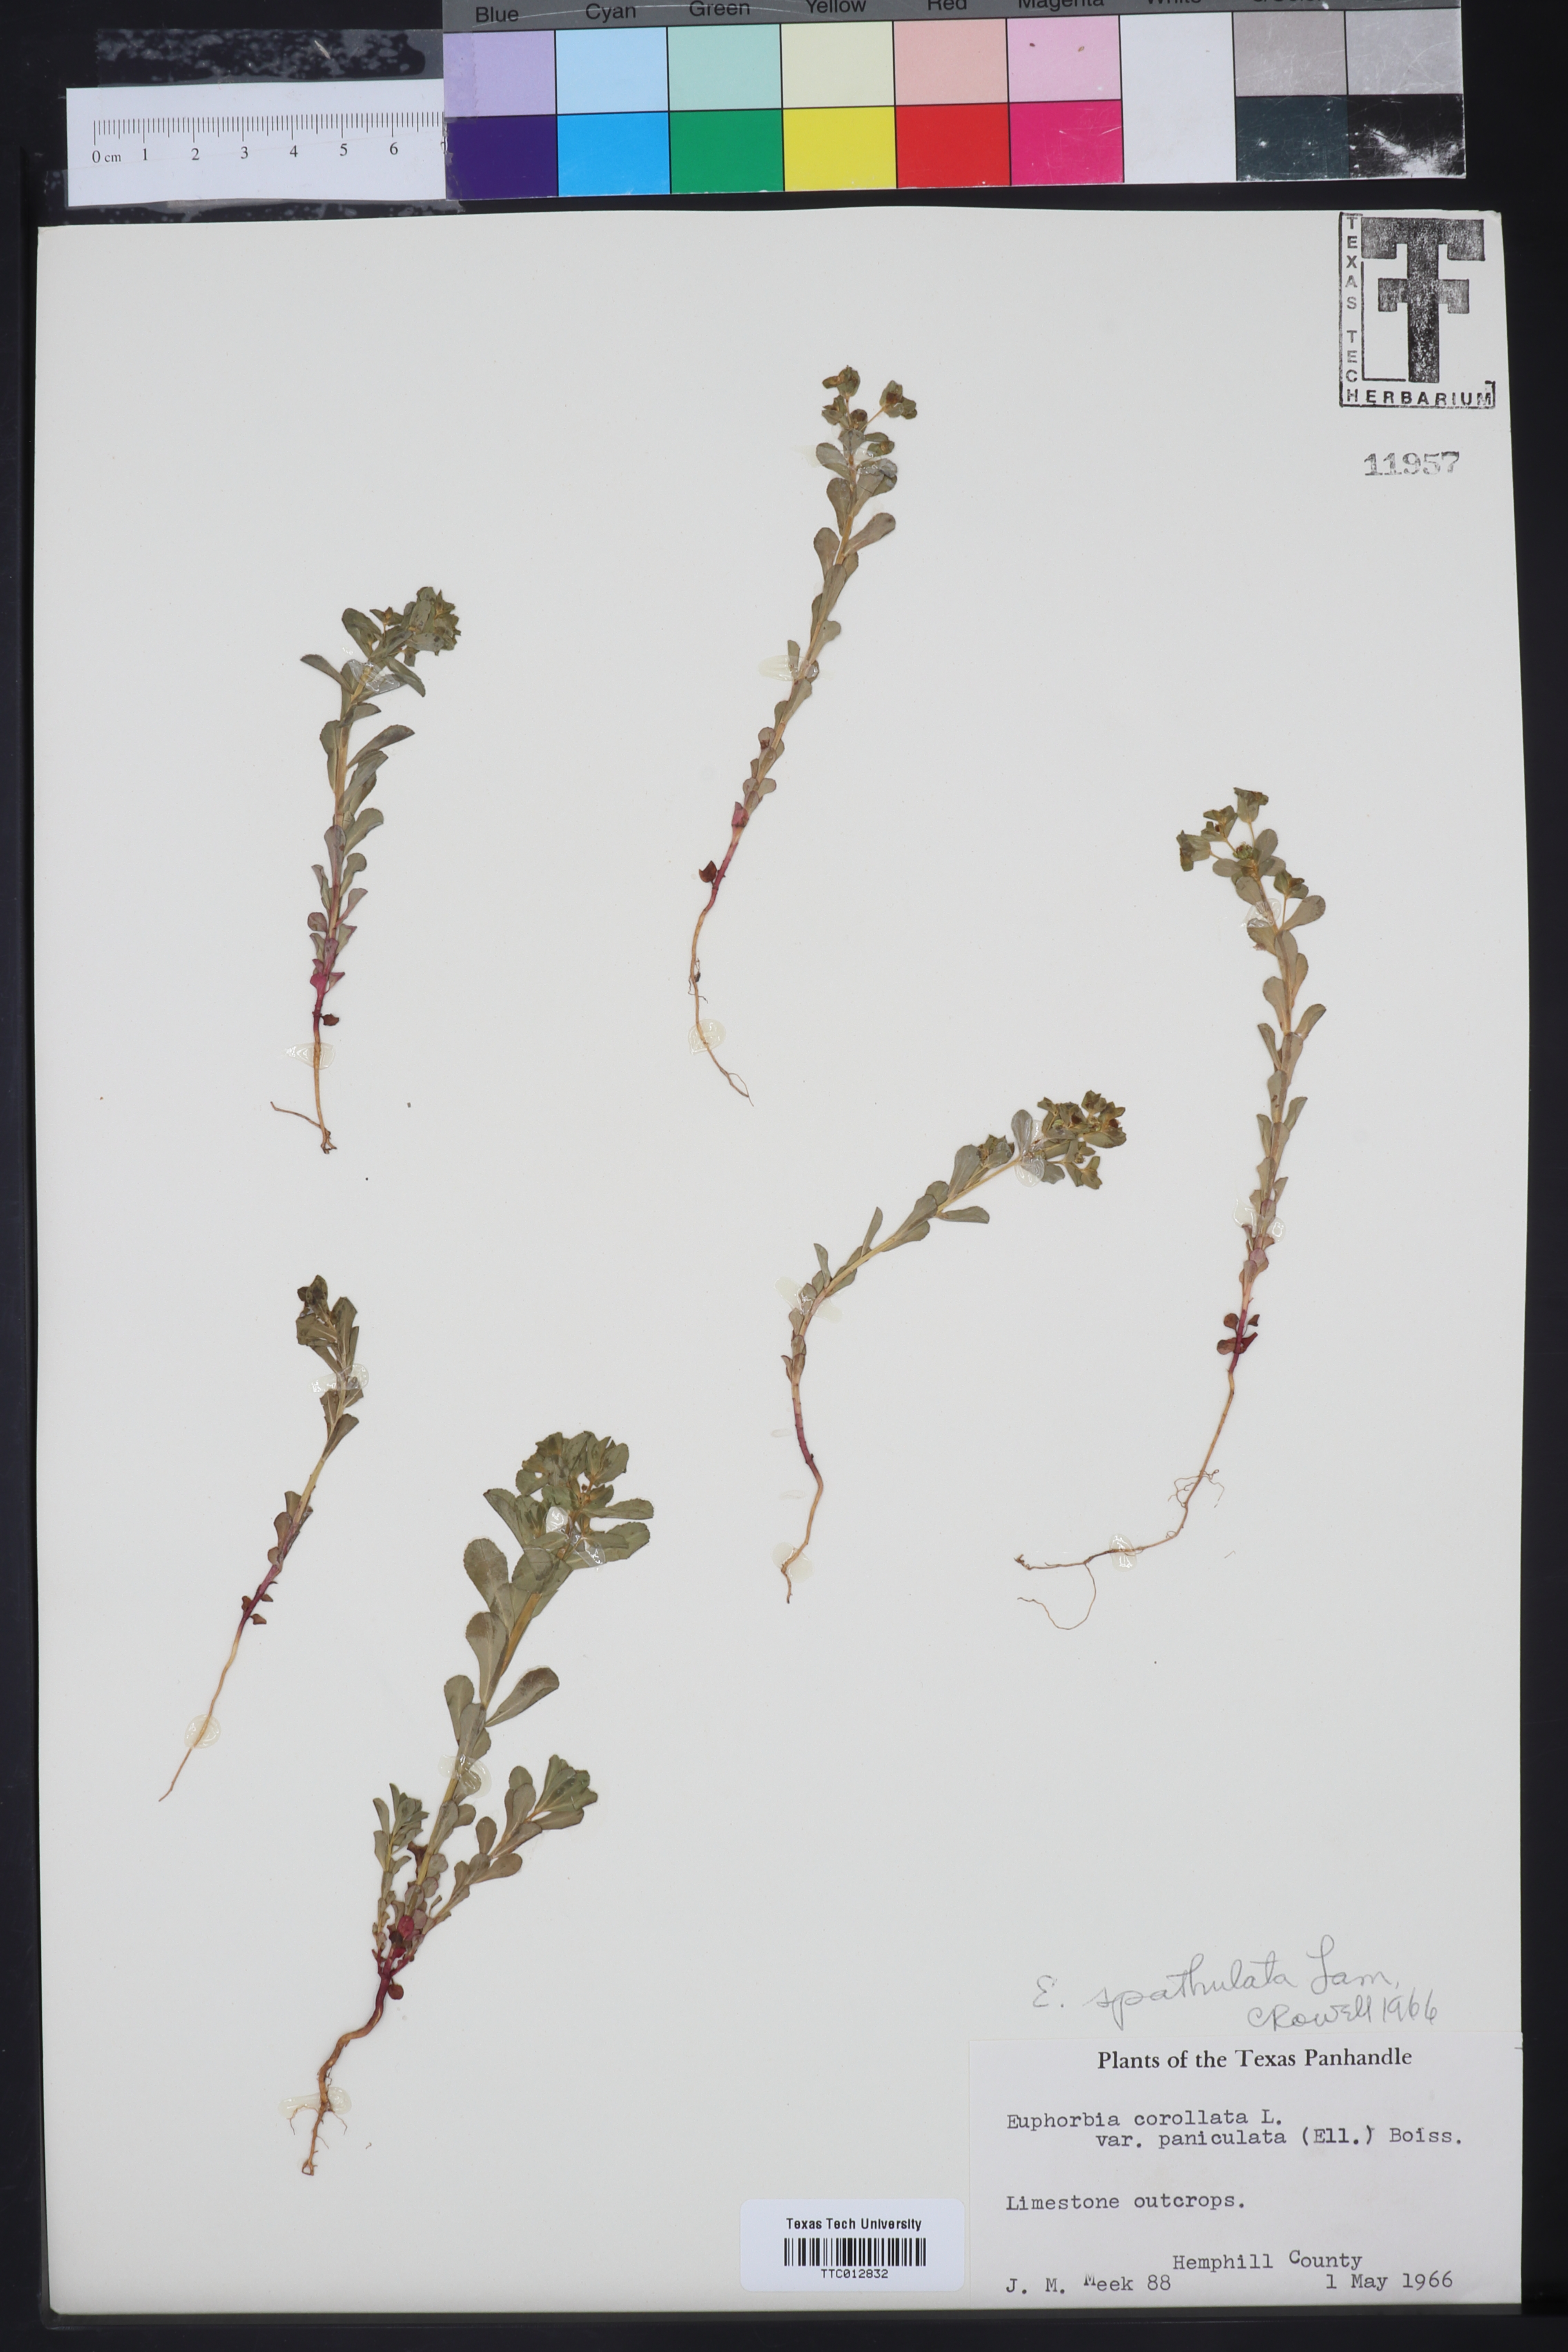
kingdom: Plantae
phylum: Tracheophyta
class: Magnoliopsida
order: Malpighiales
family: Euphorbiaceae
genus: Euphorbia
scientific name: Euphorbia spathulata
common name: Blunt spurge
